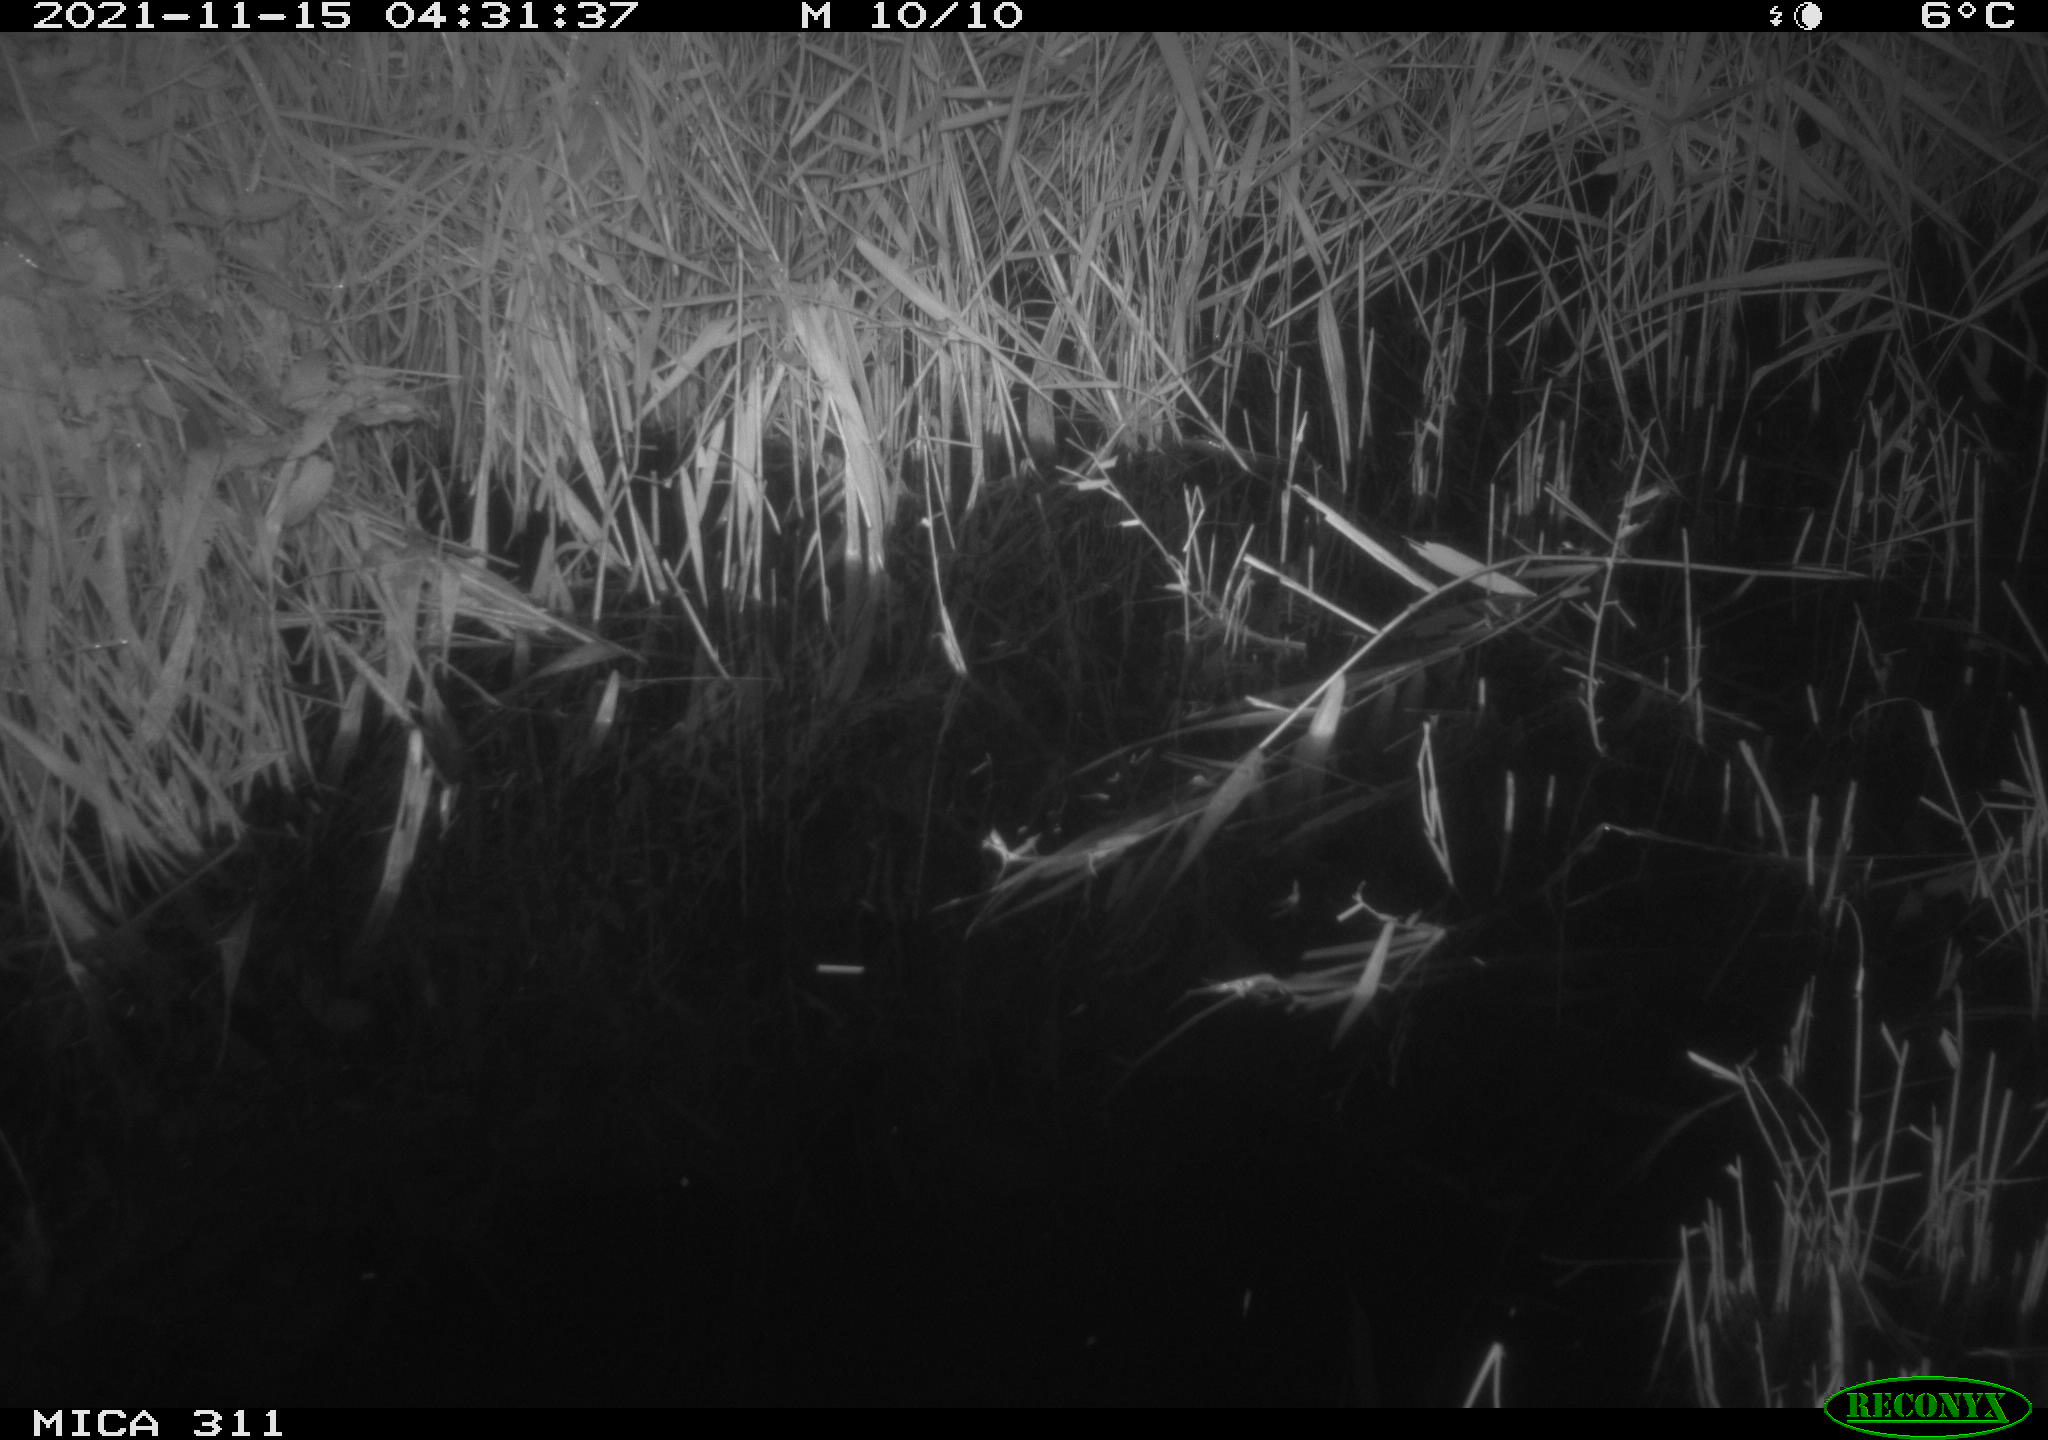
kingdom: Animalia
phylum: Chordata
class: Mammalia
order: Rodentia
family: Muridae
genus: Rattus
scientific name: Rattus norvegicus
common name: Brown rat
